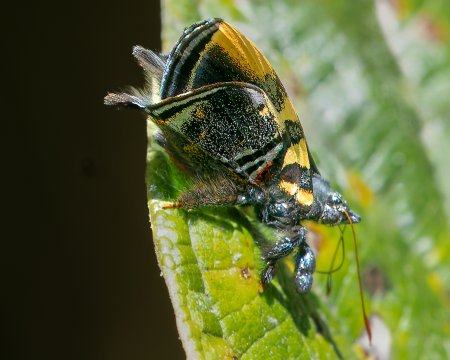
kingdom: Animalia
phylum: Arthropoda
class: Insecta
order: Lepidoptera
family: Riodinidae
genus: Ourocnemis
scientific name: Ourocnemis archytas
